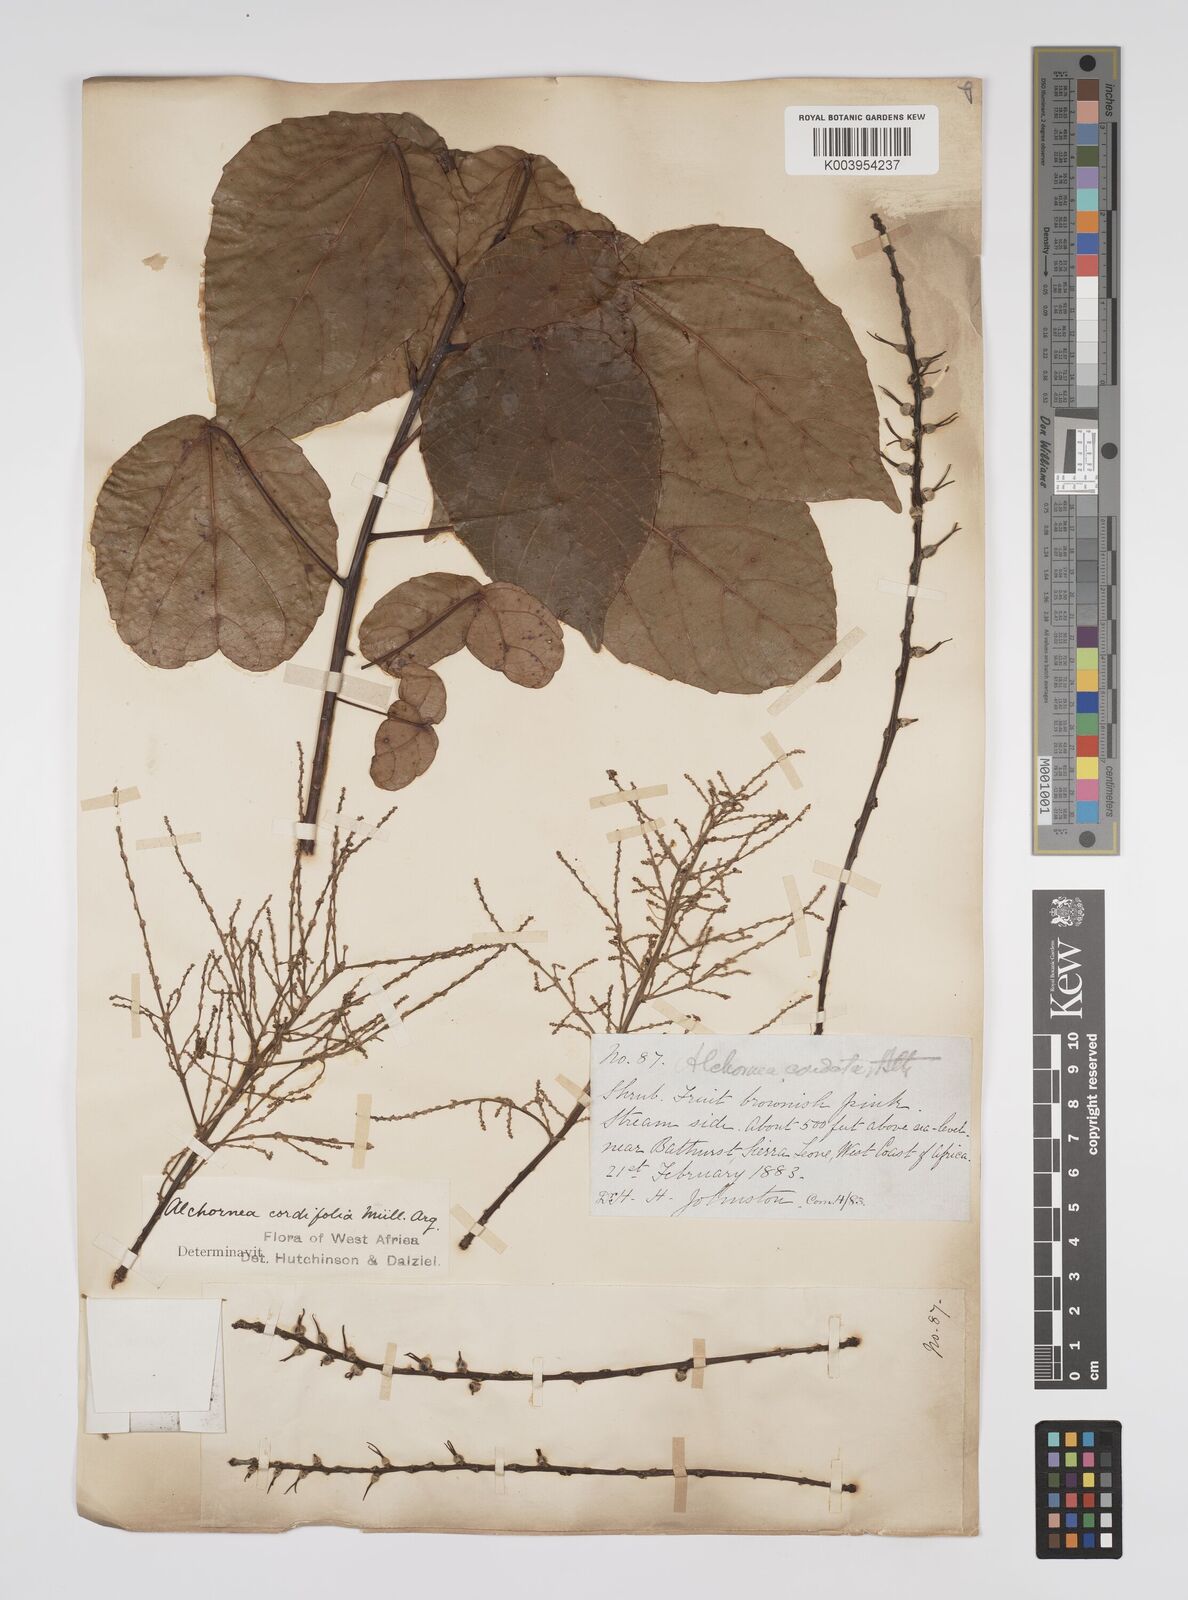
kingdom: Plantae
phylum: Tracheophyta
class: Magnoliopsida
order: Malpighiales
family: Euphorbiaceae
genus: Alchornea
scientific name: Alchornea cordifolia
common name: Christmasbush
